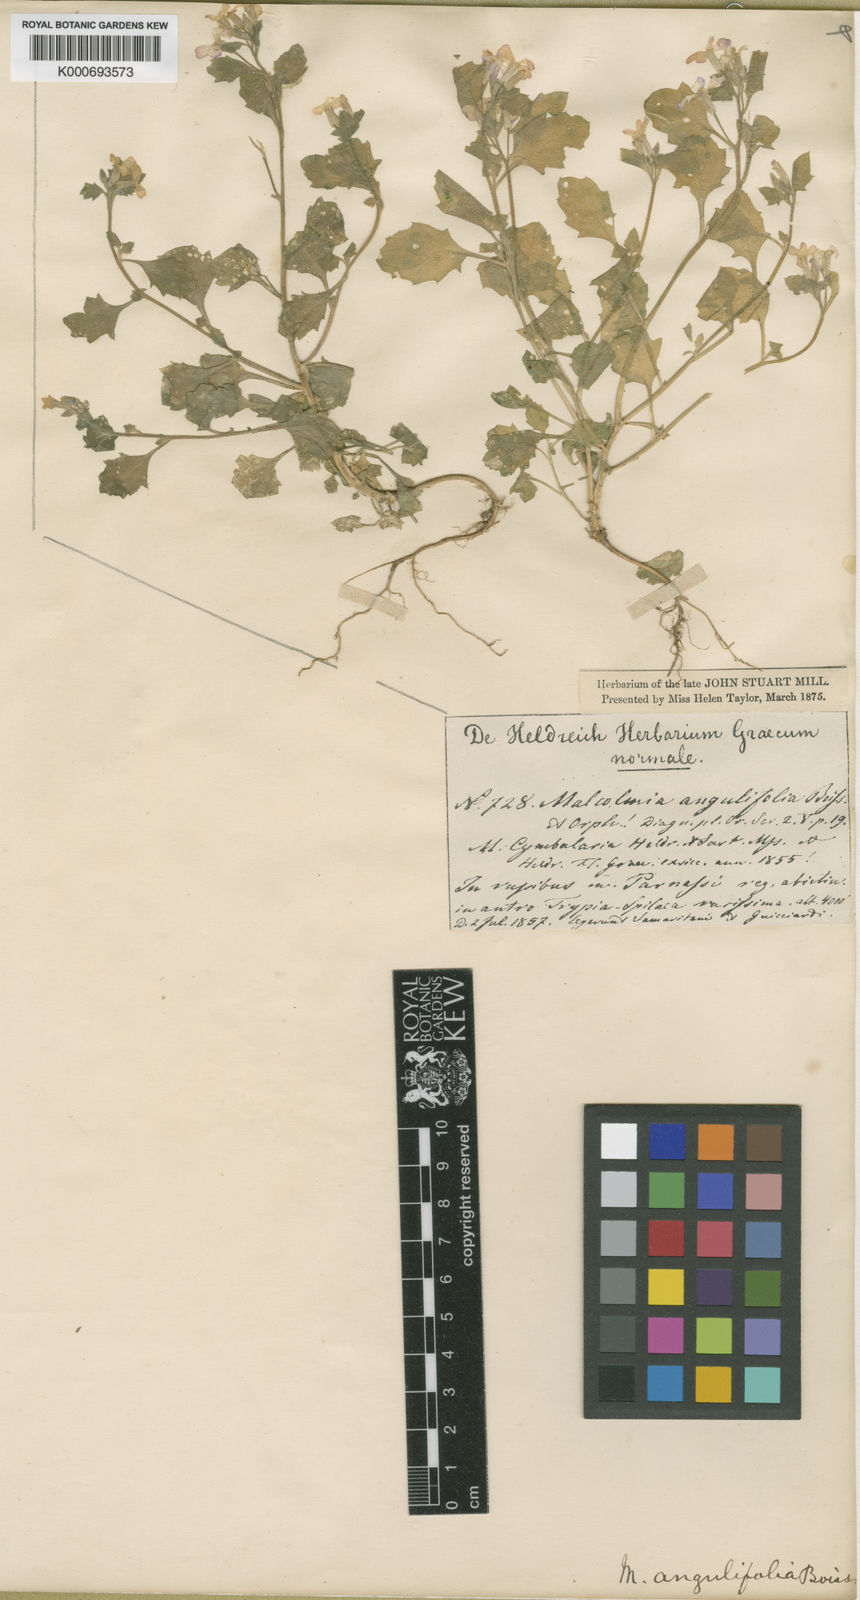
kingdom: Plantae
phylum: Tracheophyta
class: Magnoliopsida
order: Brassicales
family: Brassicaceae
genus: Malcolmia
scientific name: Malcolmia orsiniana
